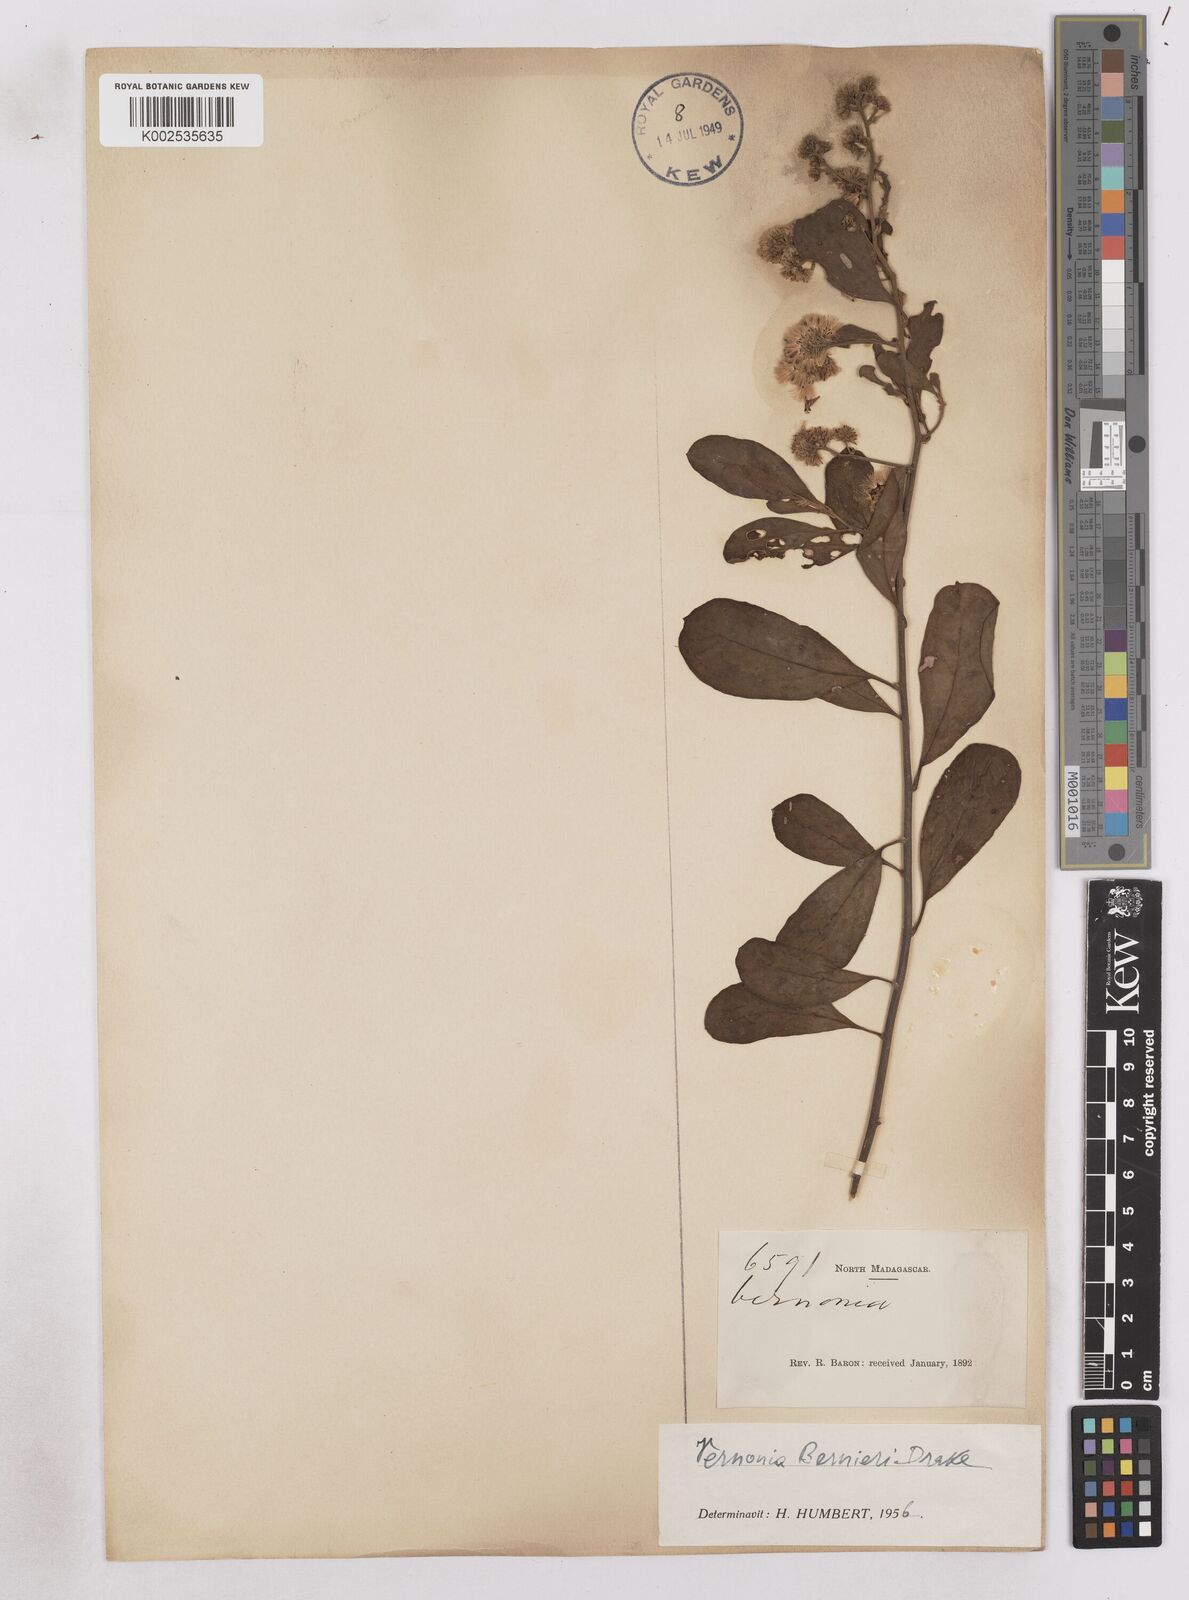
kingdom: Plantae
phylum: Tracheophyta
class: Magnoliopsida
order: Asterales
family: Asteraceae
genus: Distephanus
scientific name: Distephanus lastellei
